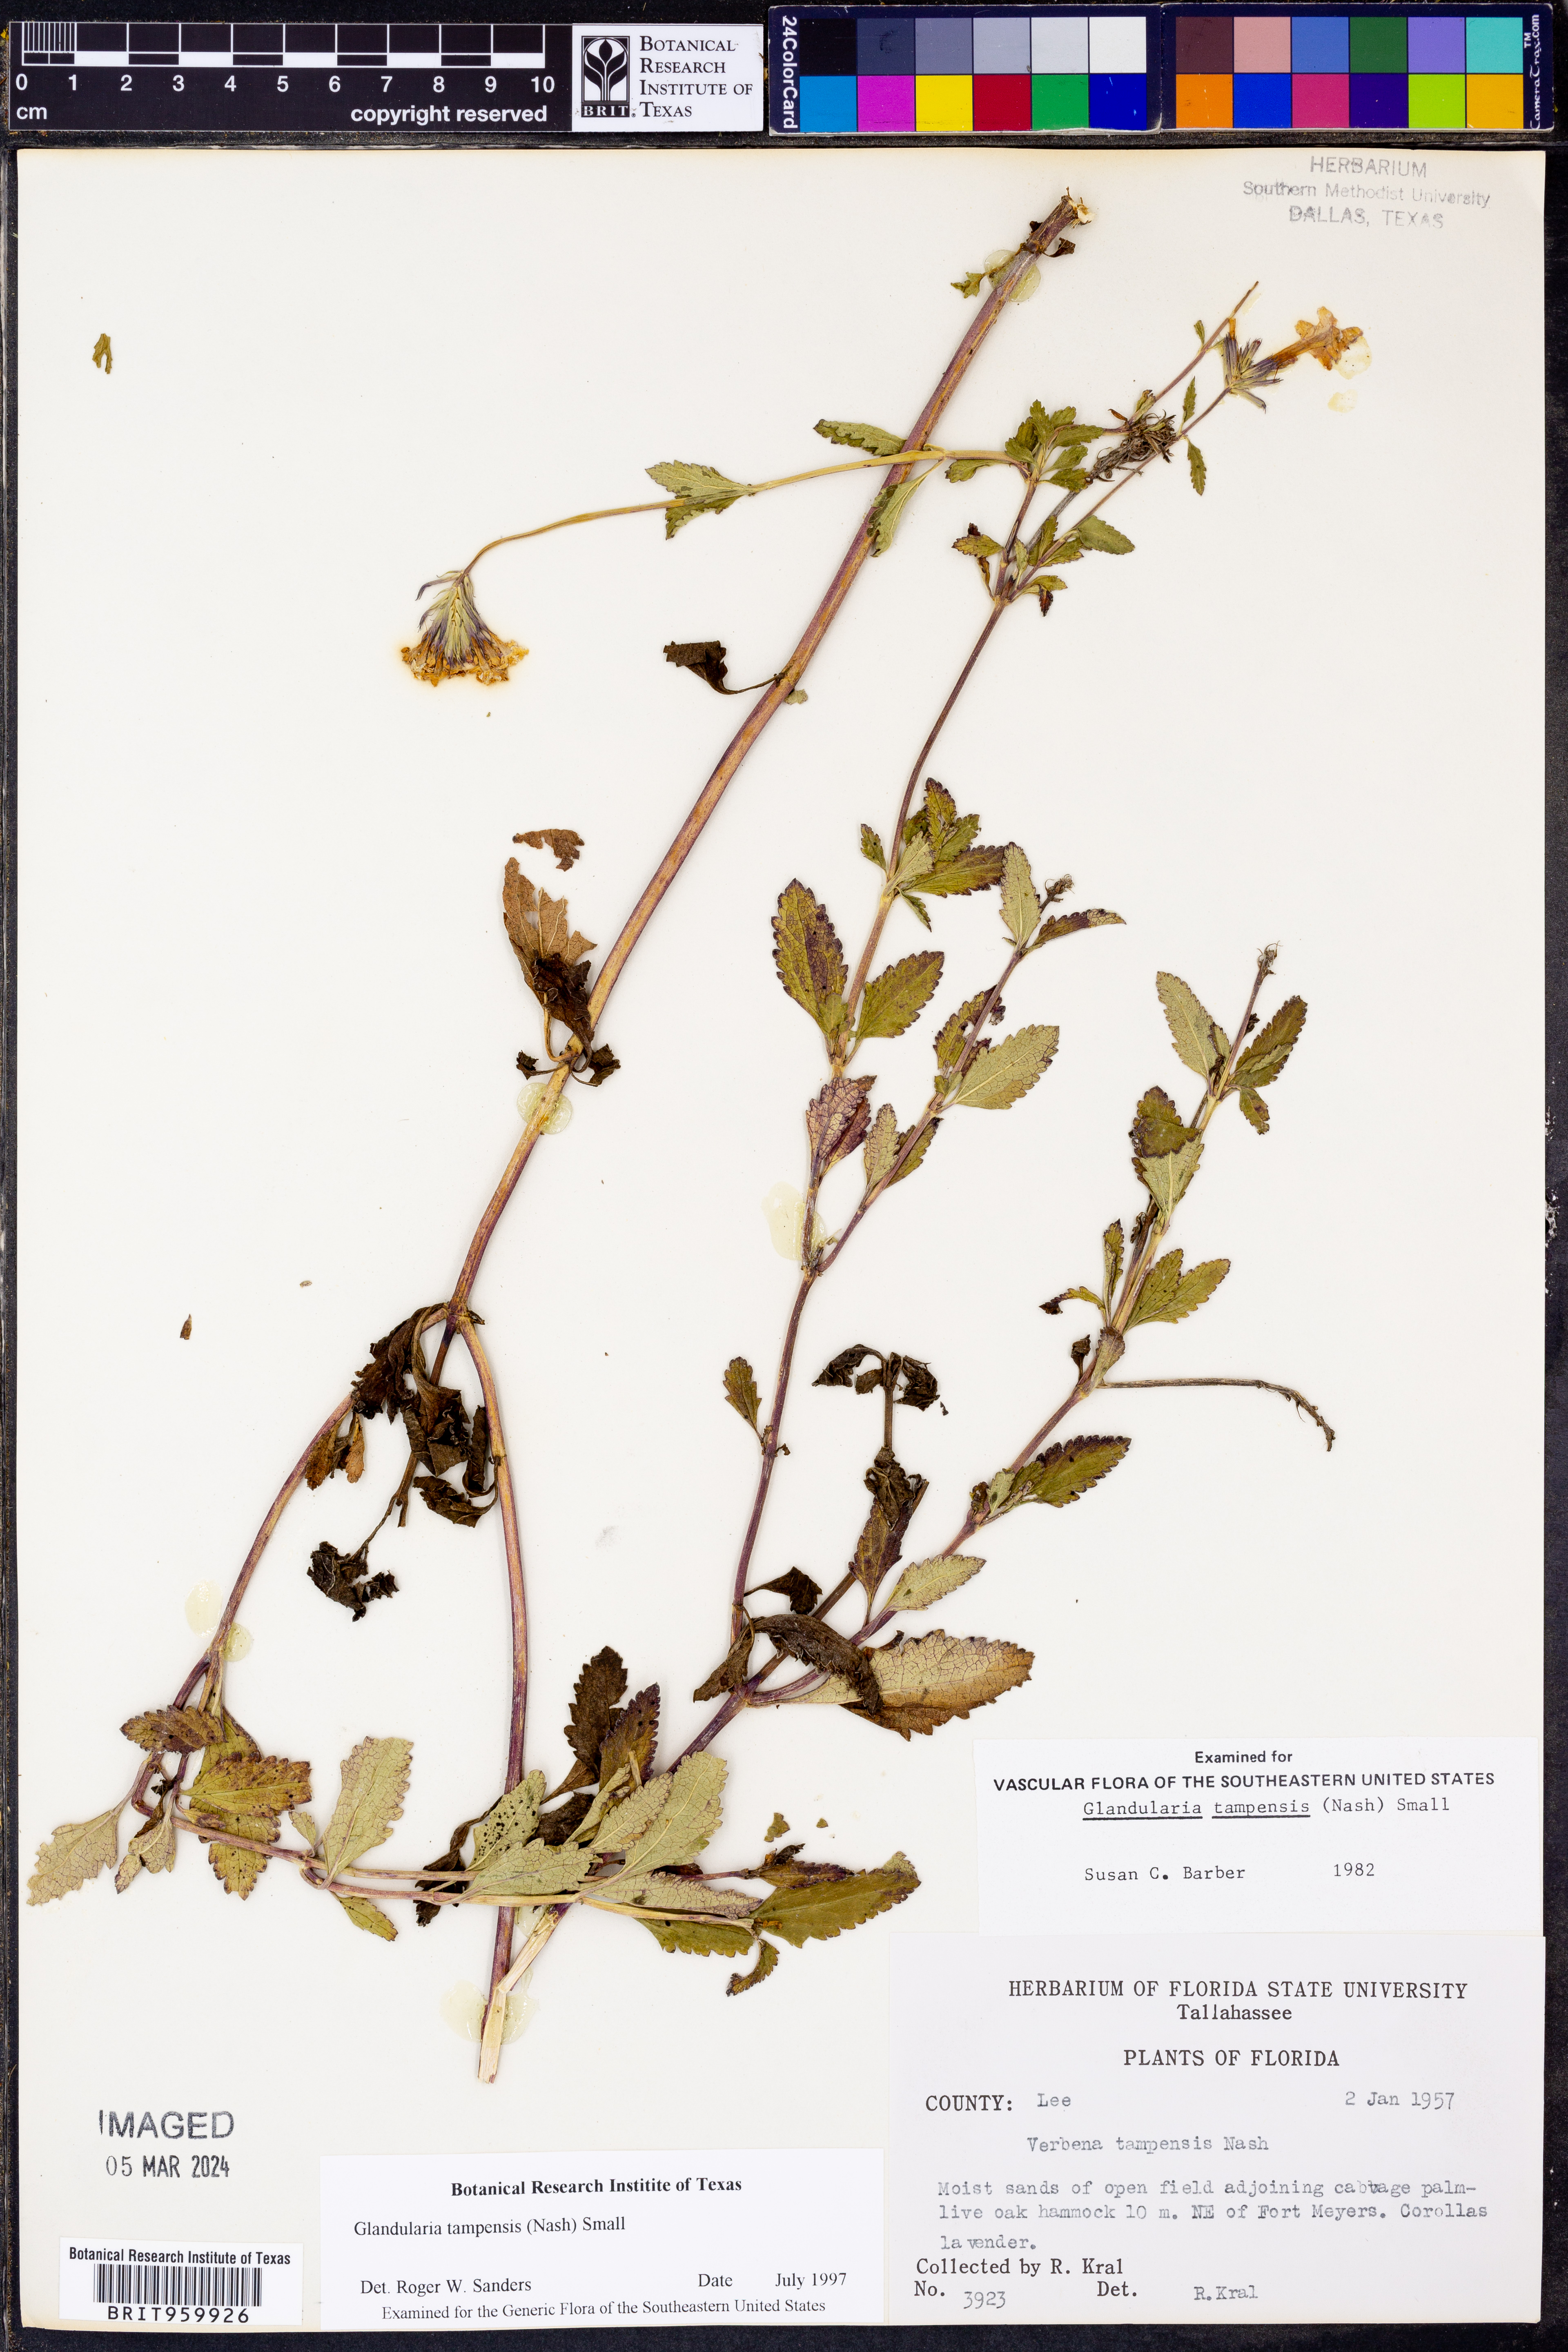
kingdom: Plantae
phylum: Tracheophyta
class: Magnoliopsida
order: Lamiales
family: Verbenaceae
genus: Verbena
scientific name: Verbena tampensis
